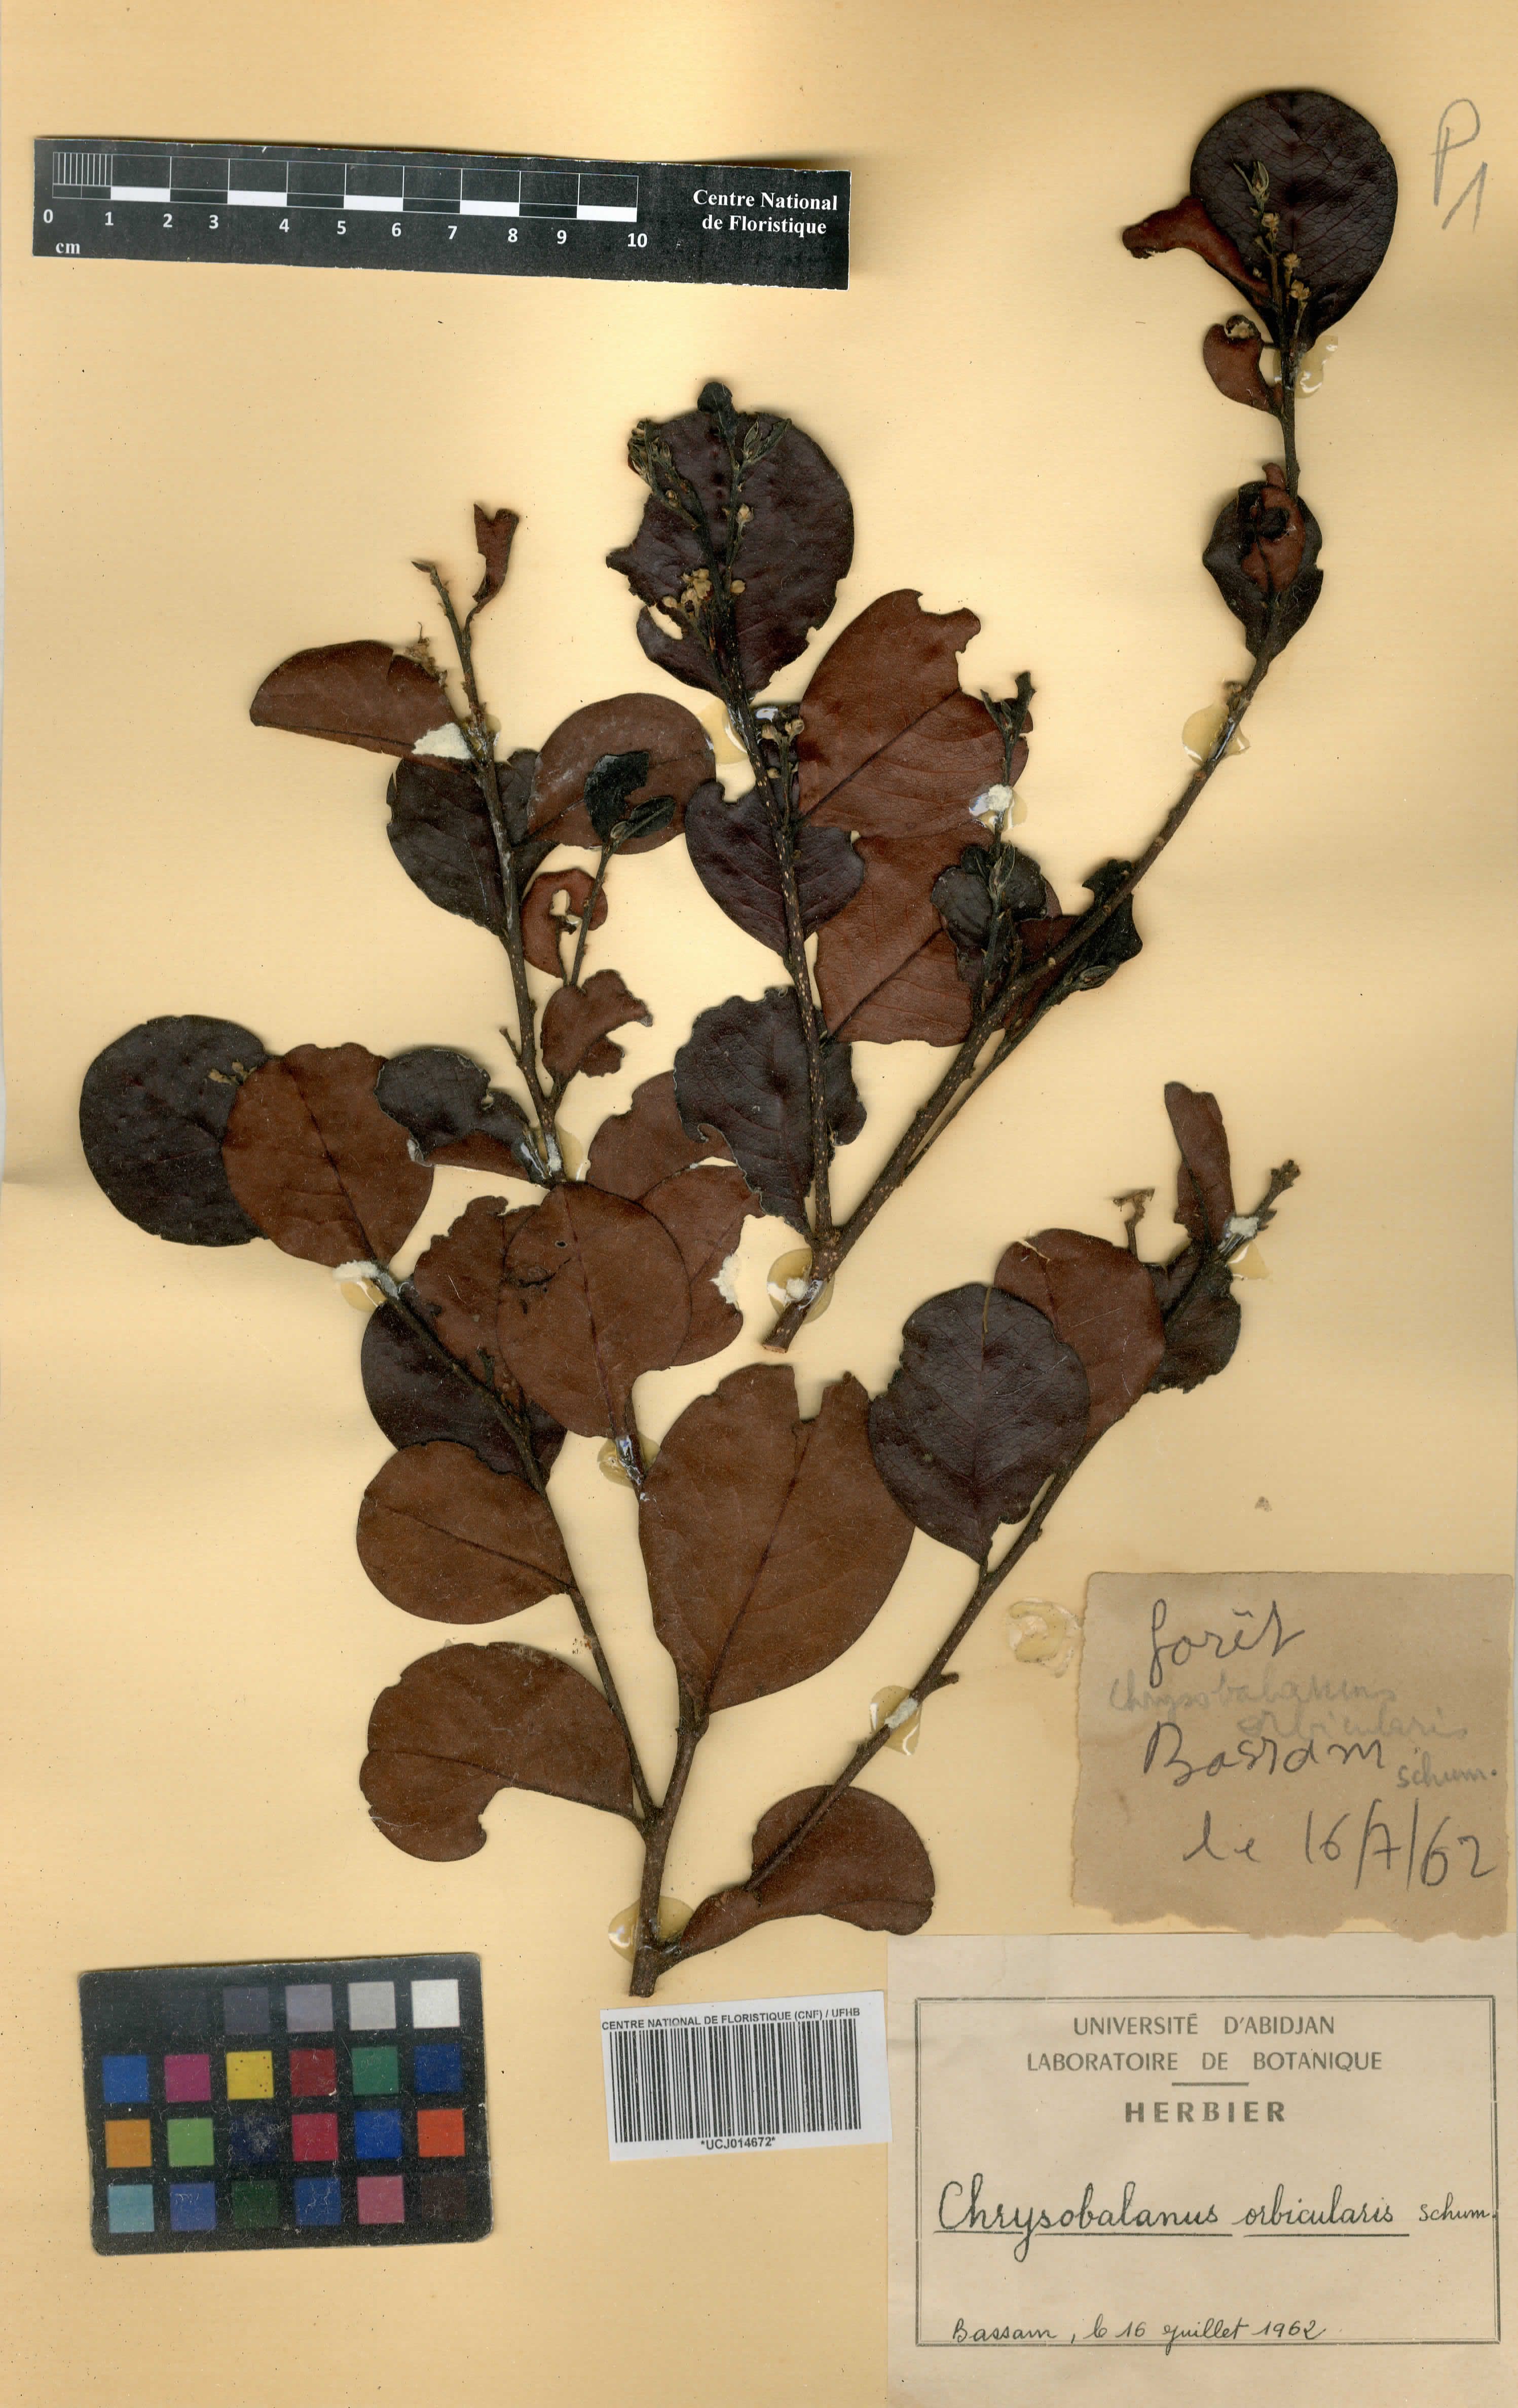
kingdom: Plantae
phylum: Tracheophyta
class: Magnoliopsida
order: Malpighiales
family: Chrysobalanaceae
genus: Chrysobalanus
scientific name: Chrysobalanus icaco
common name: Coco plum
